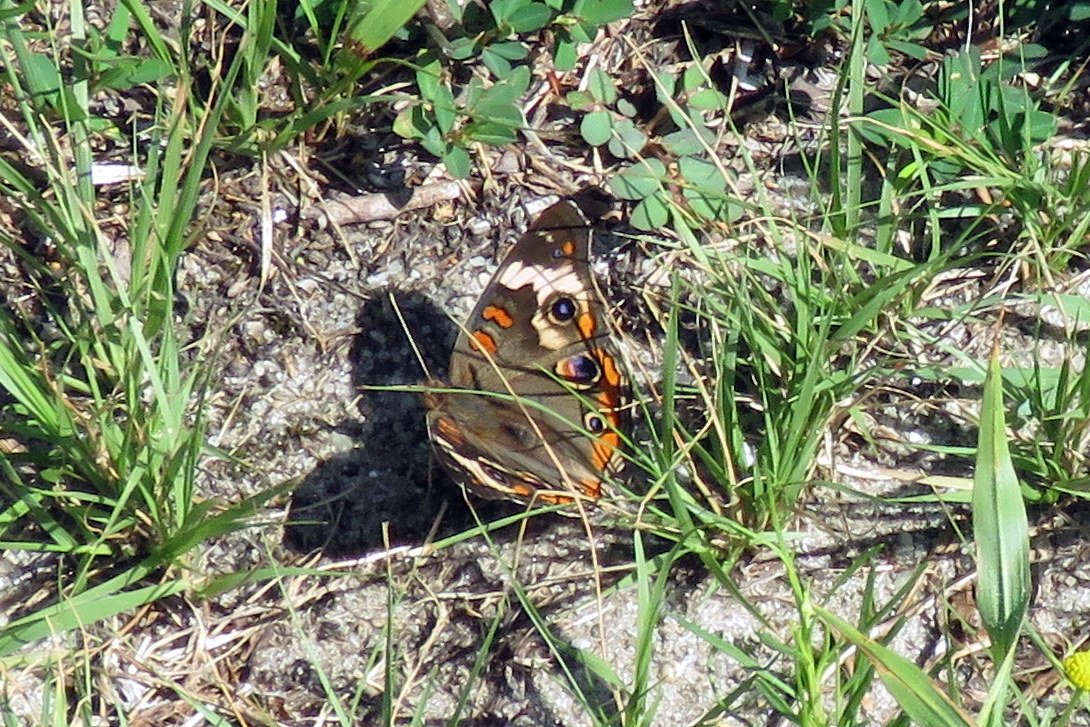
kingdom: Animalia
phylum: Arthropoda
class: Insecta
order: Lepidoptera
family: Nymphalidae
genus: Junonia
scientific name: Junonia coenia
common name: Common Buckeye
